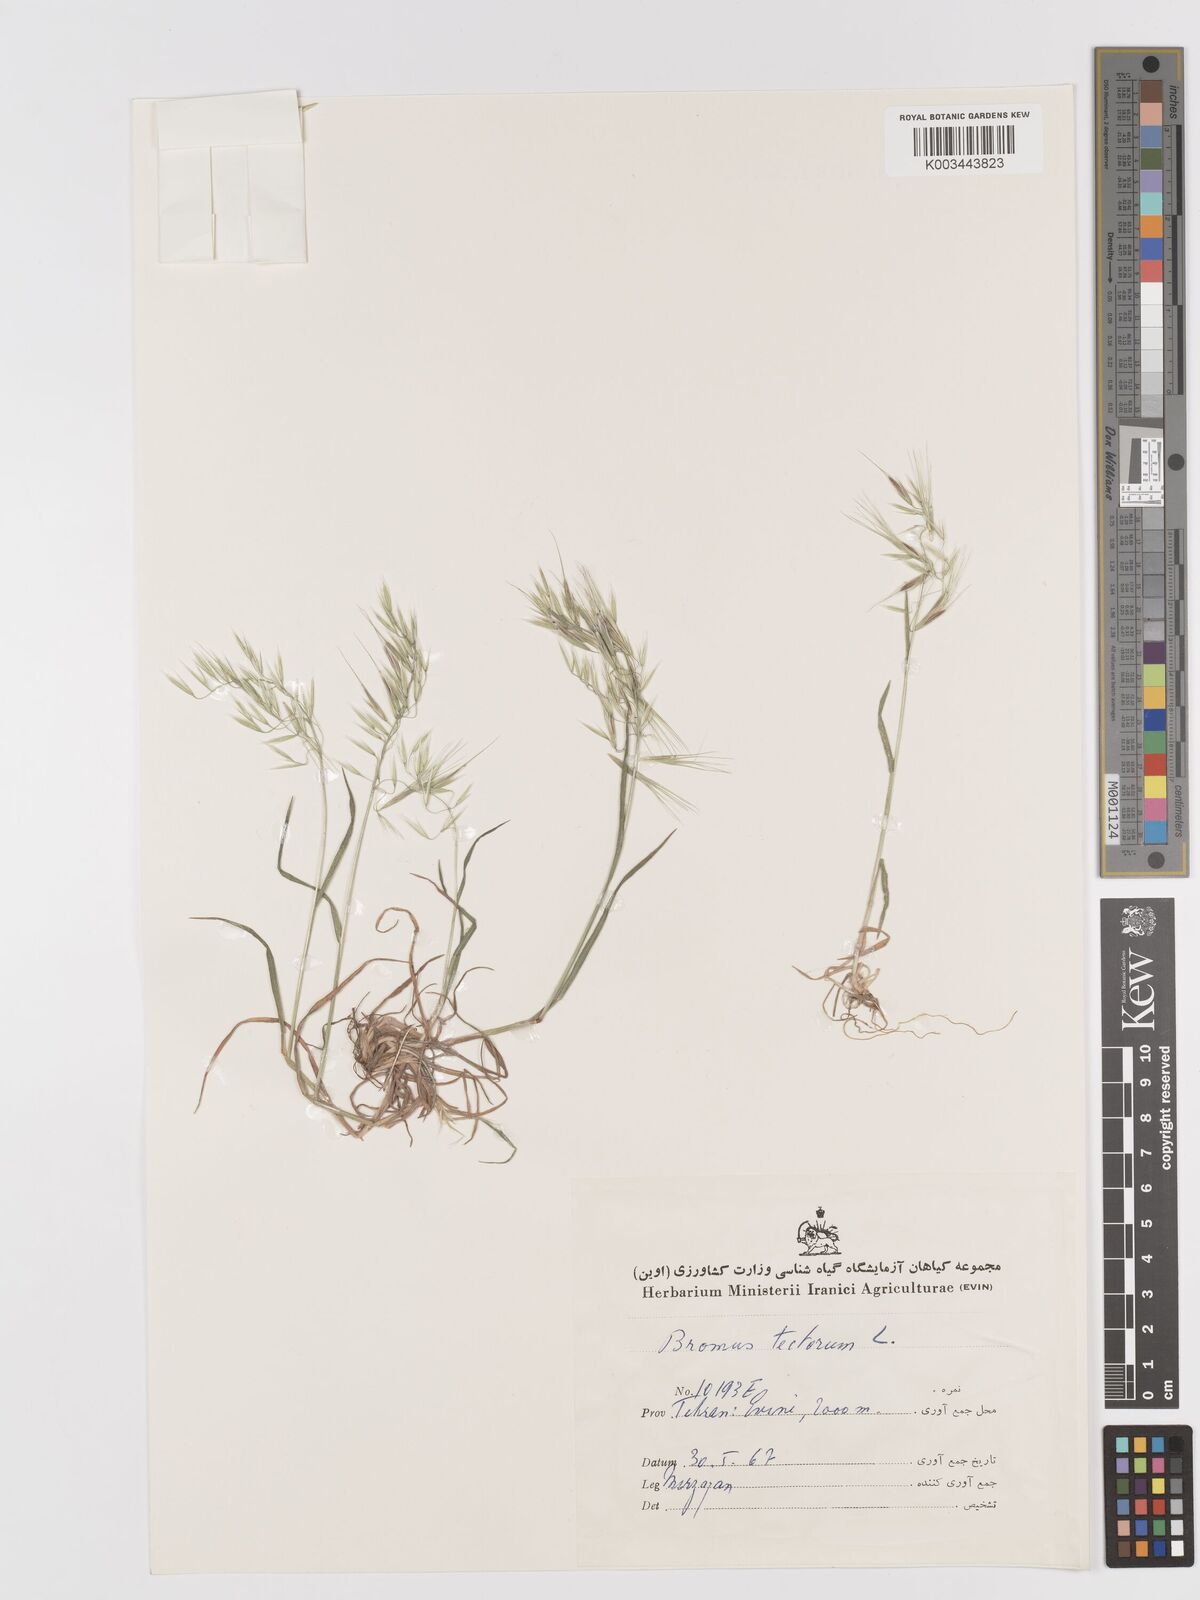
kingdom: Plantae
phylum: Tracheophyta
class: Liliopsida
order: Poales
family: Poaceae
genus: Bromus
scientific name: Bromus tectorum
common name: Cheatgrass
